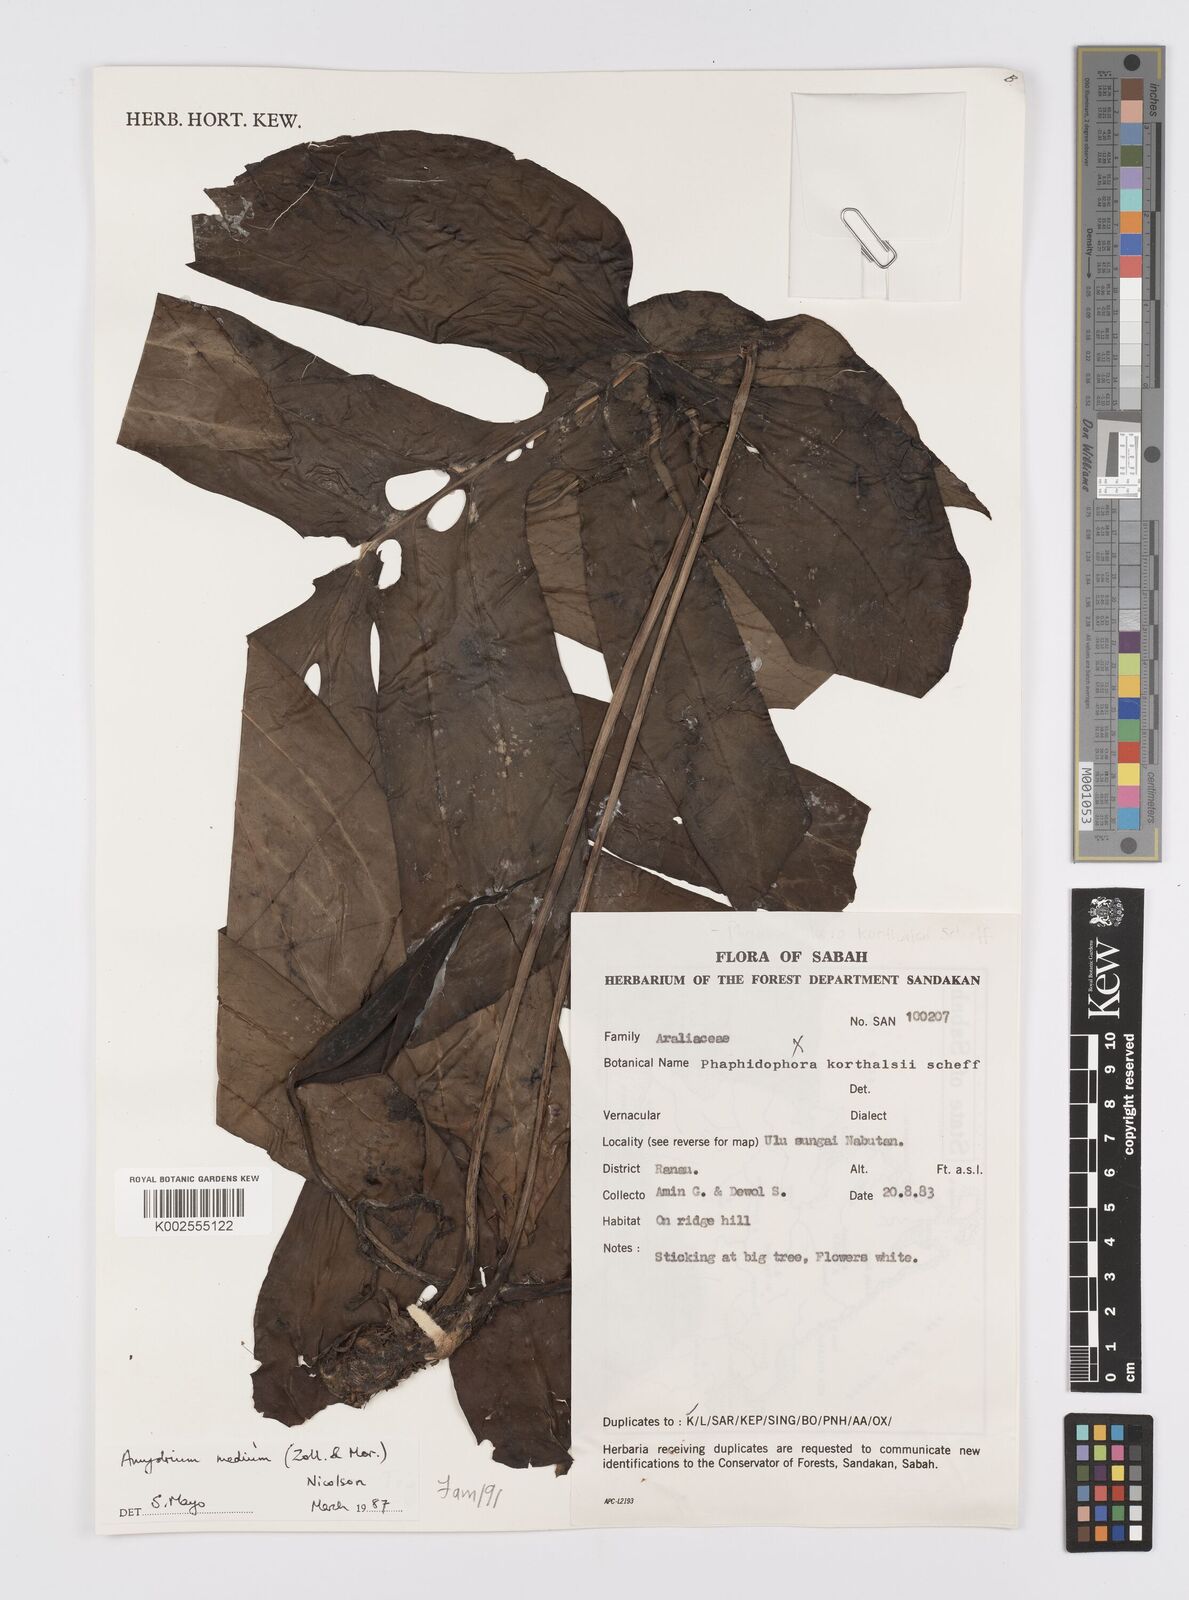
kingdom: Plantae
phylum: Tracheophyta
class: Liliopsida
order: Alismatales
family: Araceae
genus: Amydrium
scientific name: Amydrium medium
